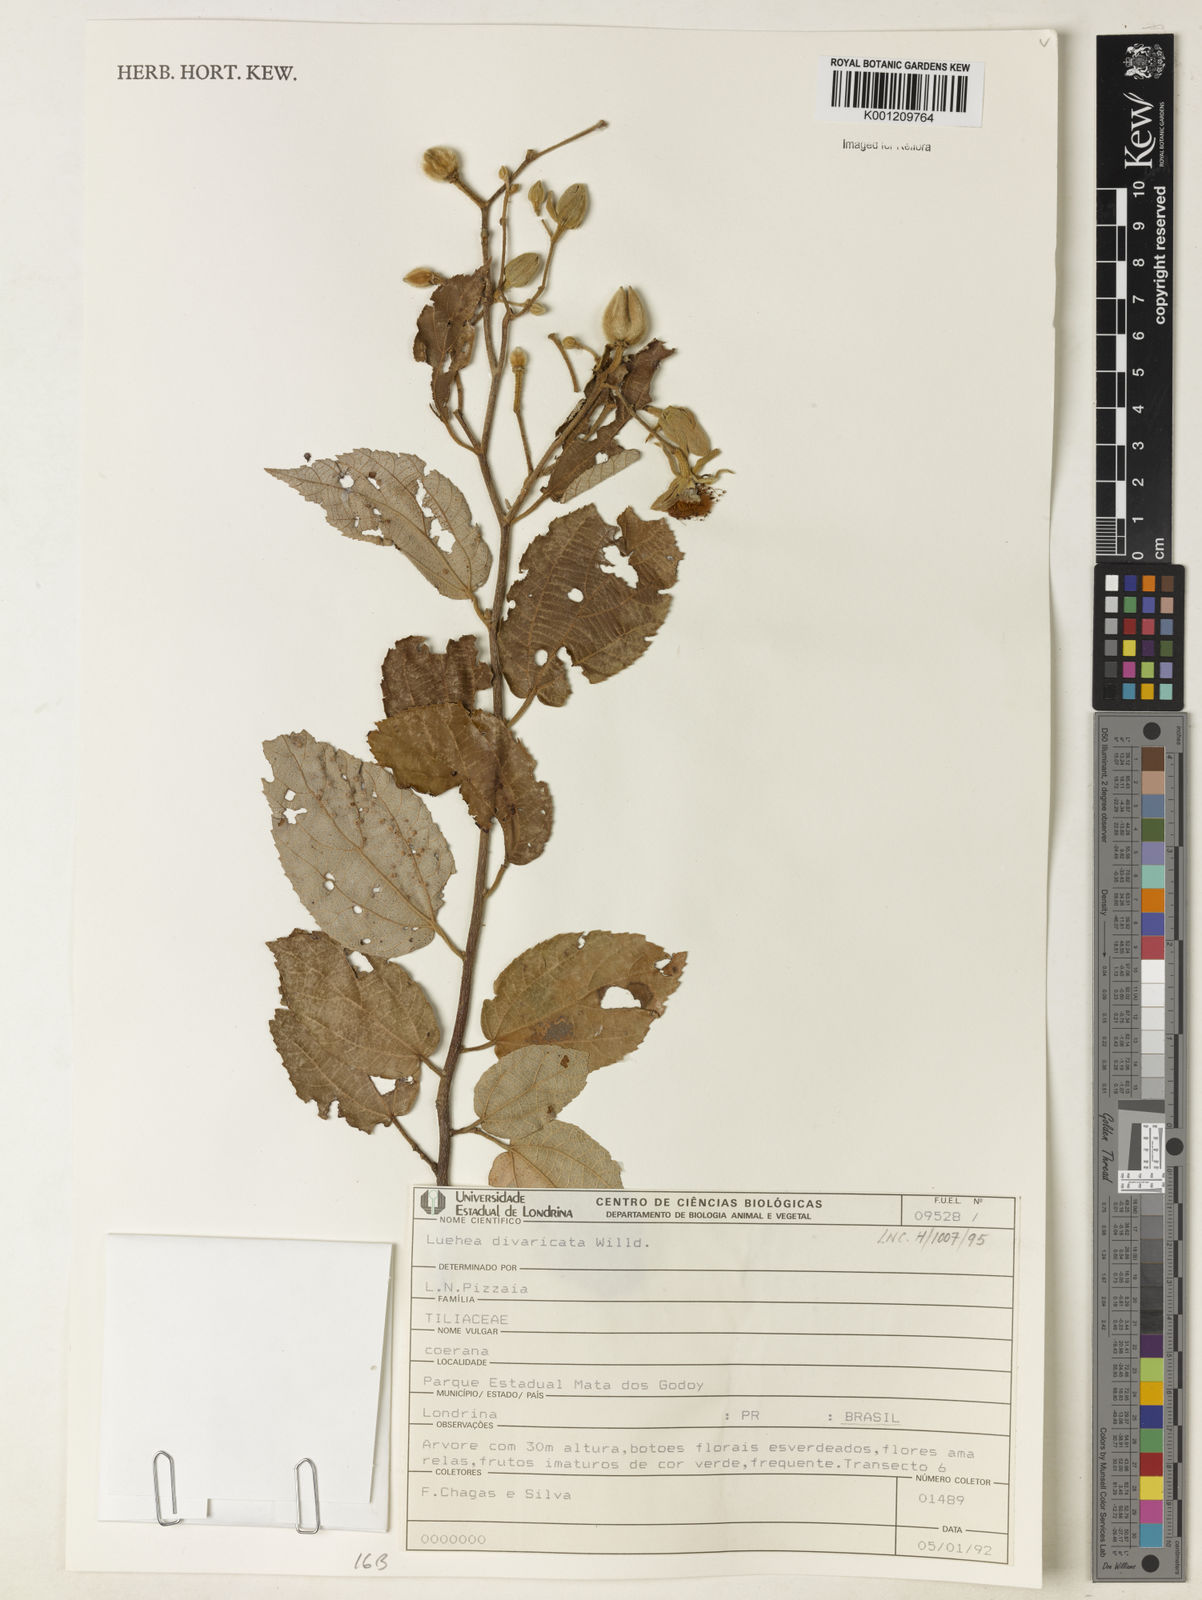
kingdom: Plantae
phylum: Tracheophyta
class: Magnoliopsida
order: Malvales
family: Malvaceae
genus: Luehea
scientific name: Luehea divaricata
